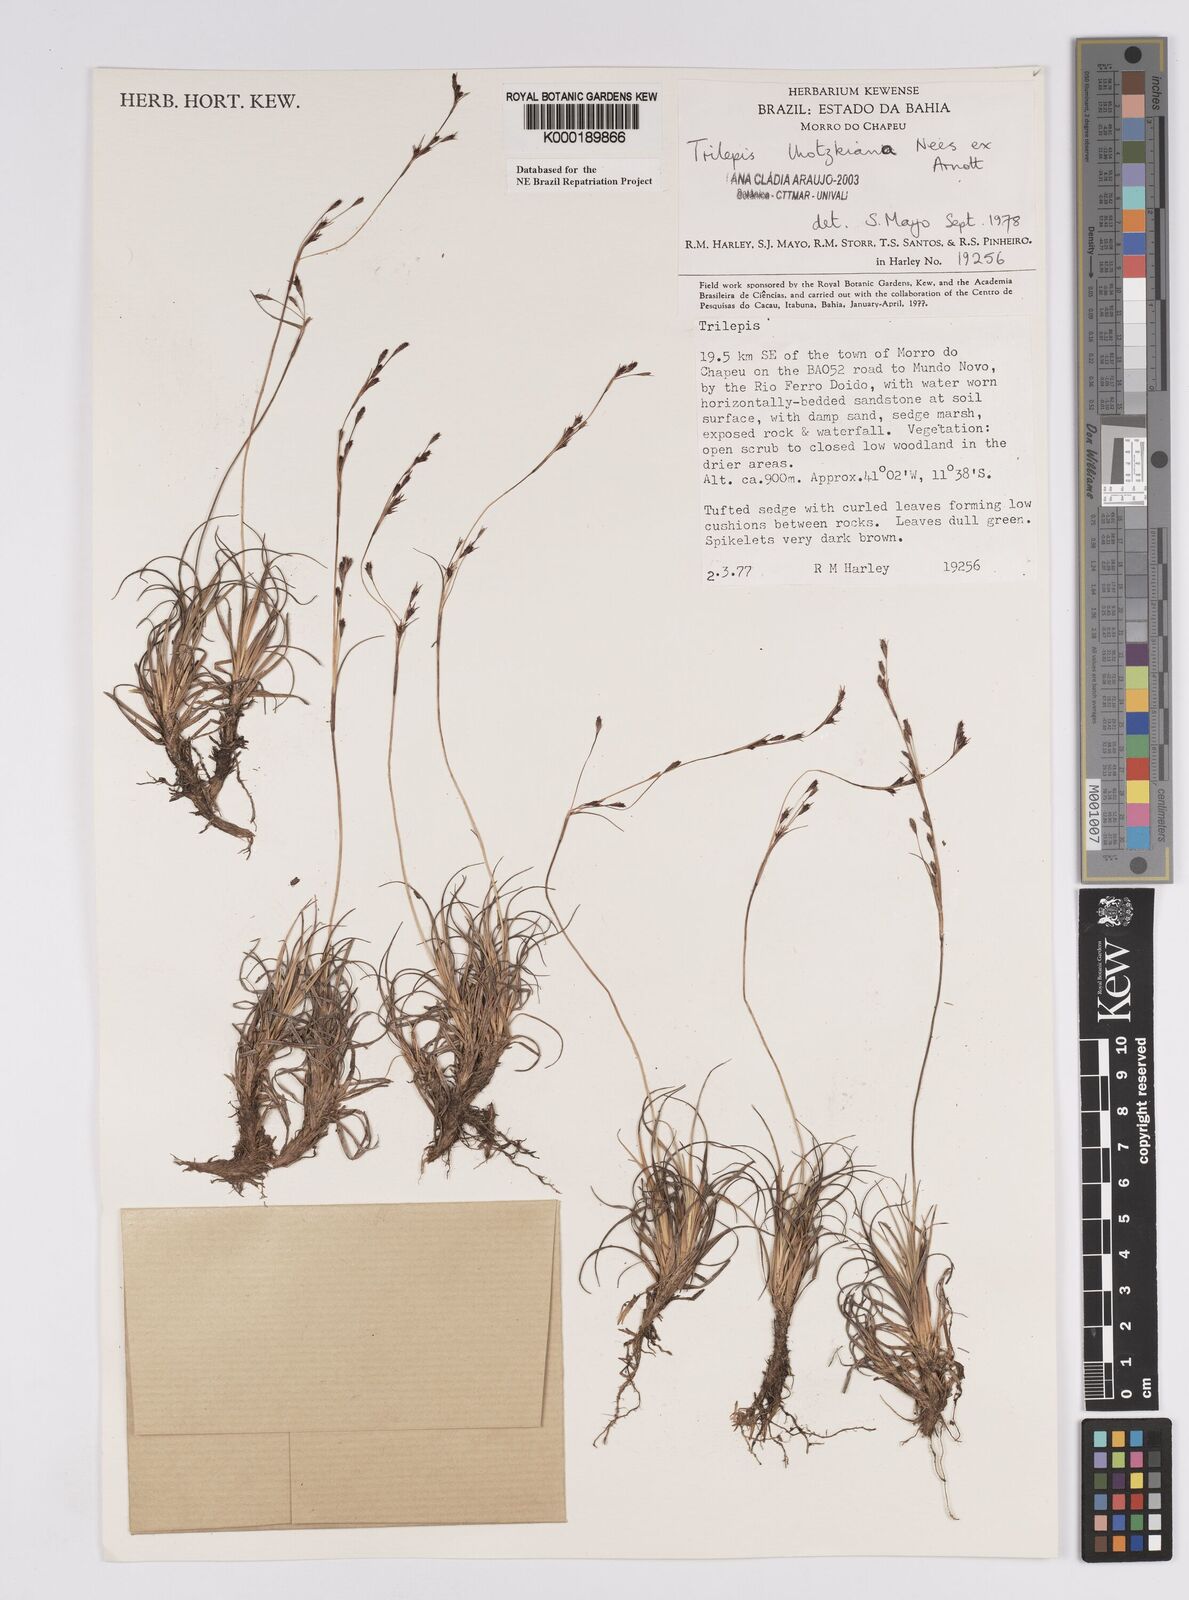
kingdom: Plantae
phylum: Tracheophyta
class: Liliopsida
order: Poales
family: Cyperaceae
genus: Trilepis
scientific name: Trilepis lhotzkiana
